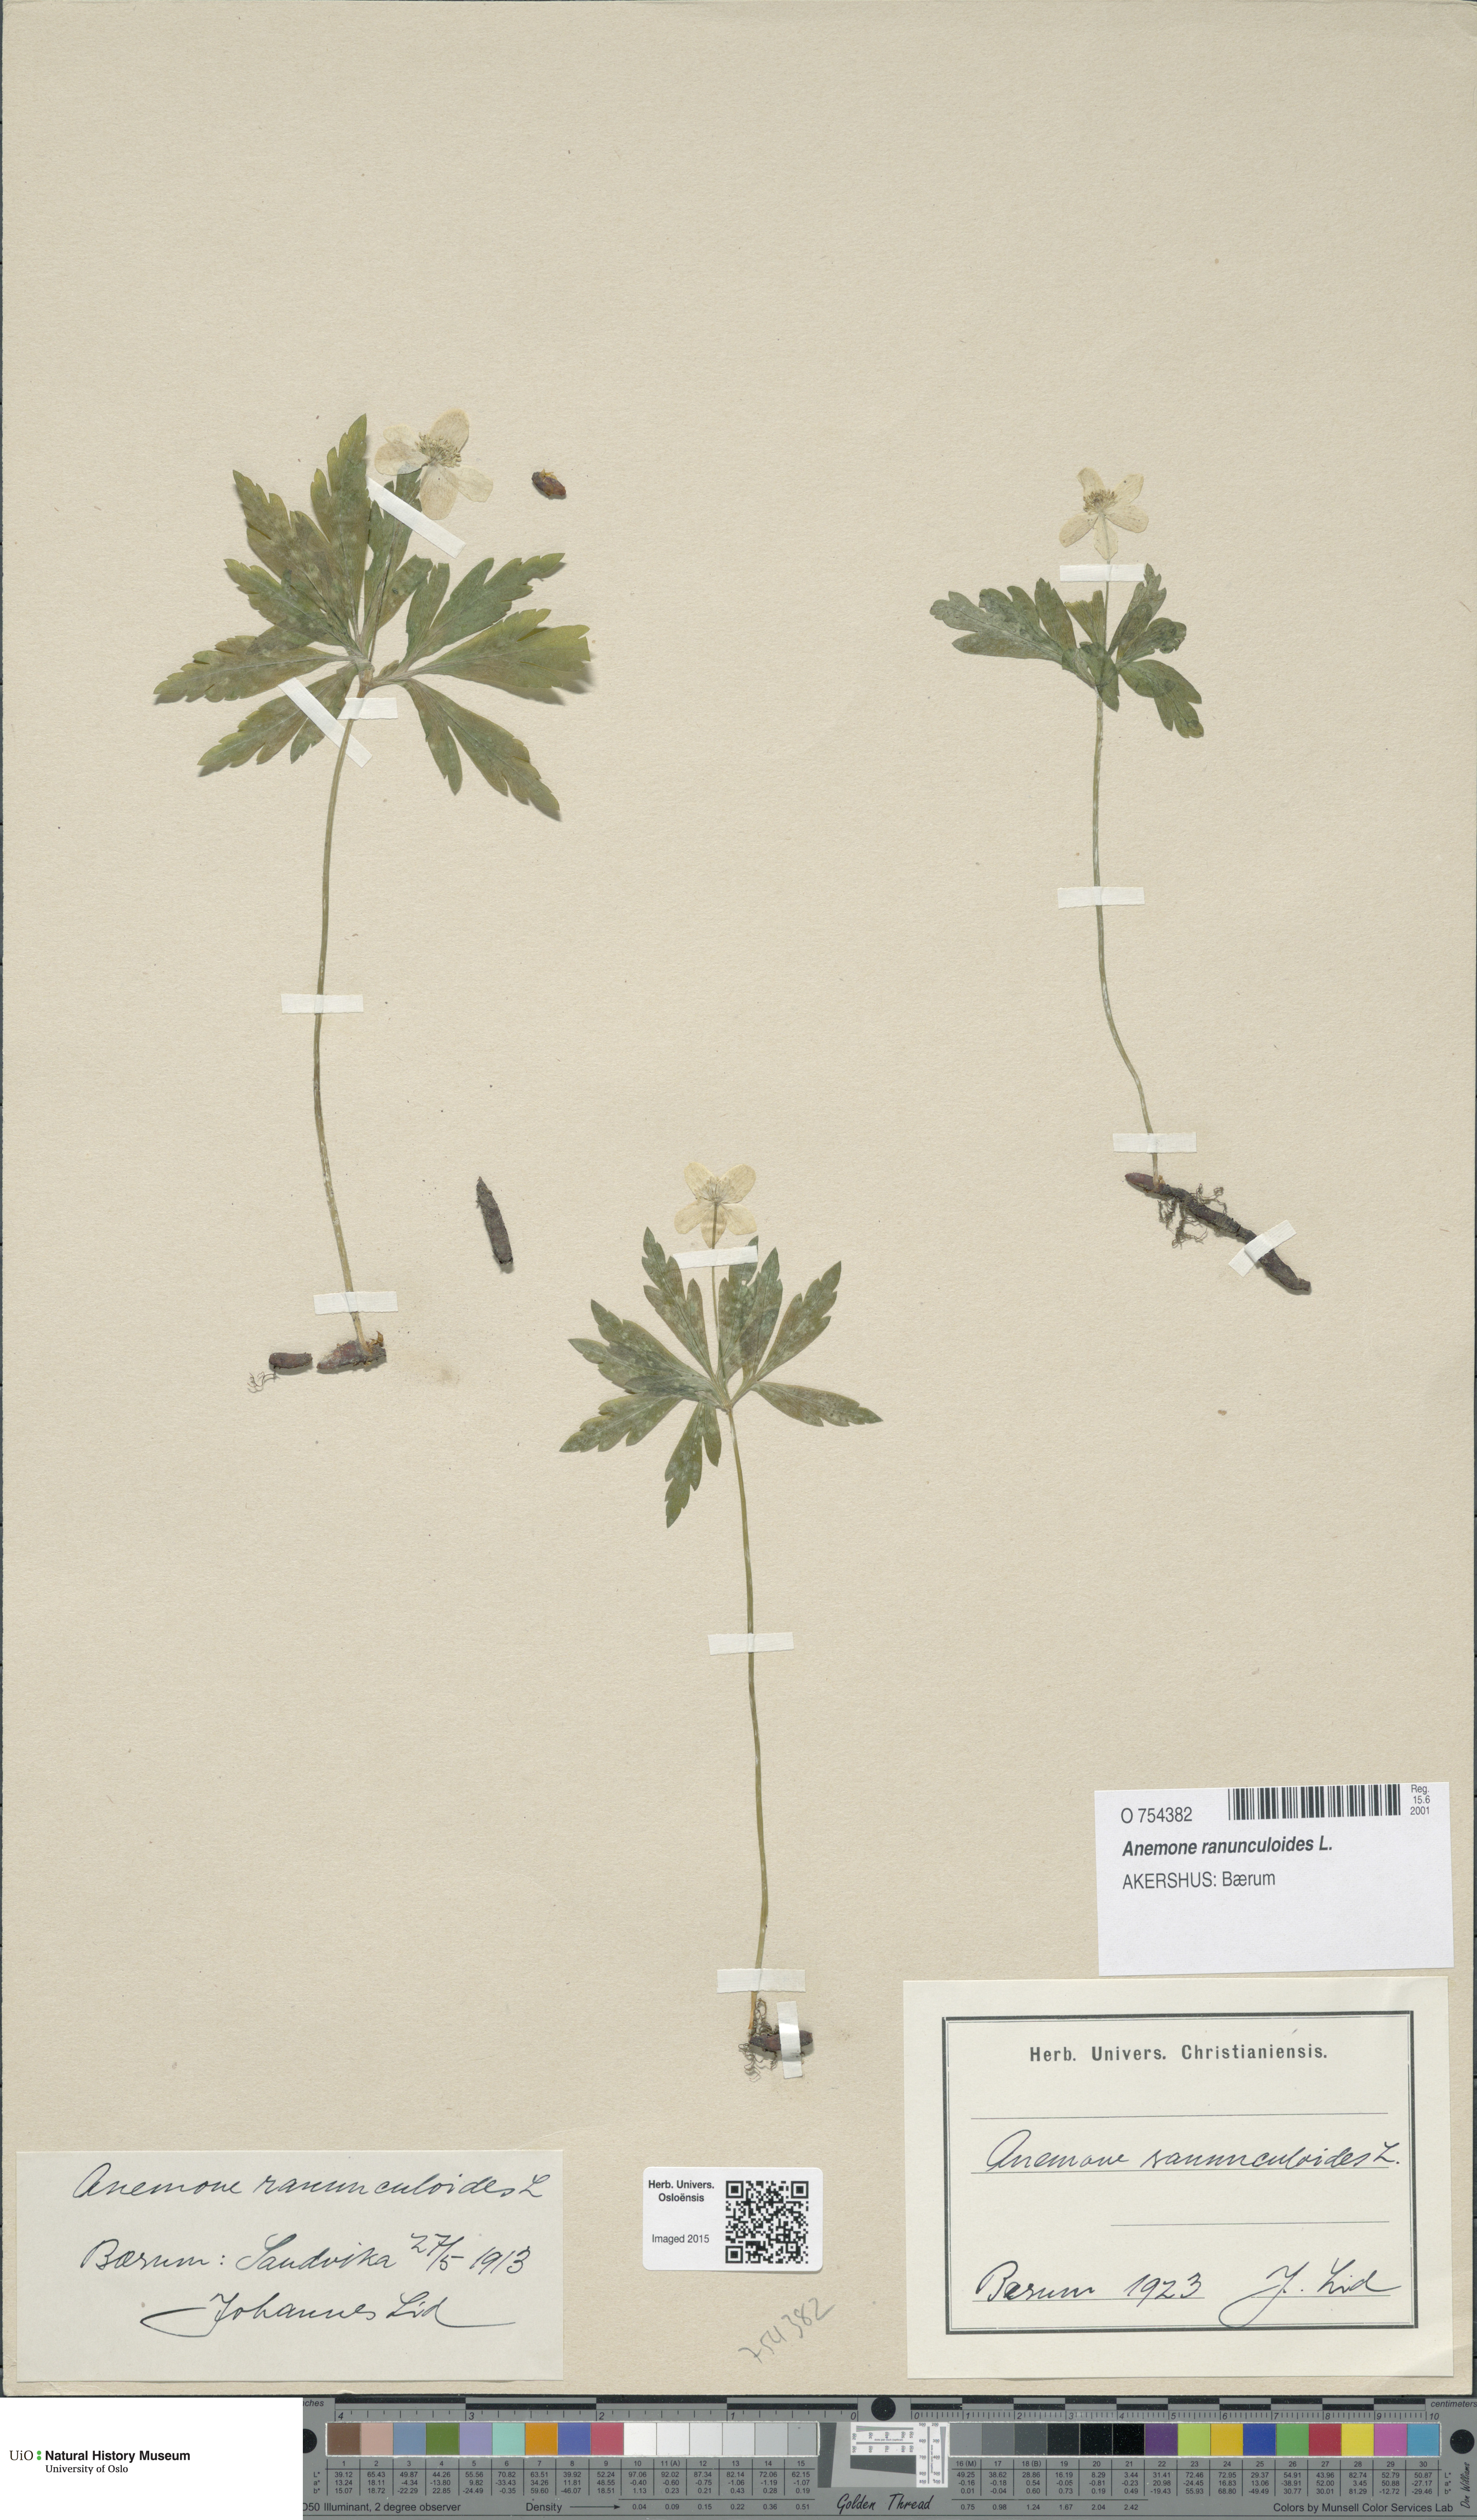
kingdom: Plantae
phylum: Tracheophyta
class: Magnoliopsida
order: Ranunculales
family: Ranunculaceae
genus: Anemone
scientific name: Anemone ranunculoides
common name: Yellow anemone
